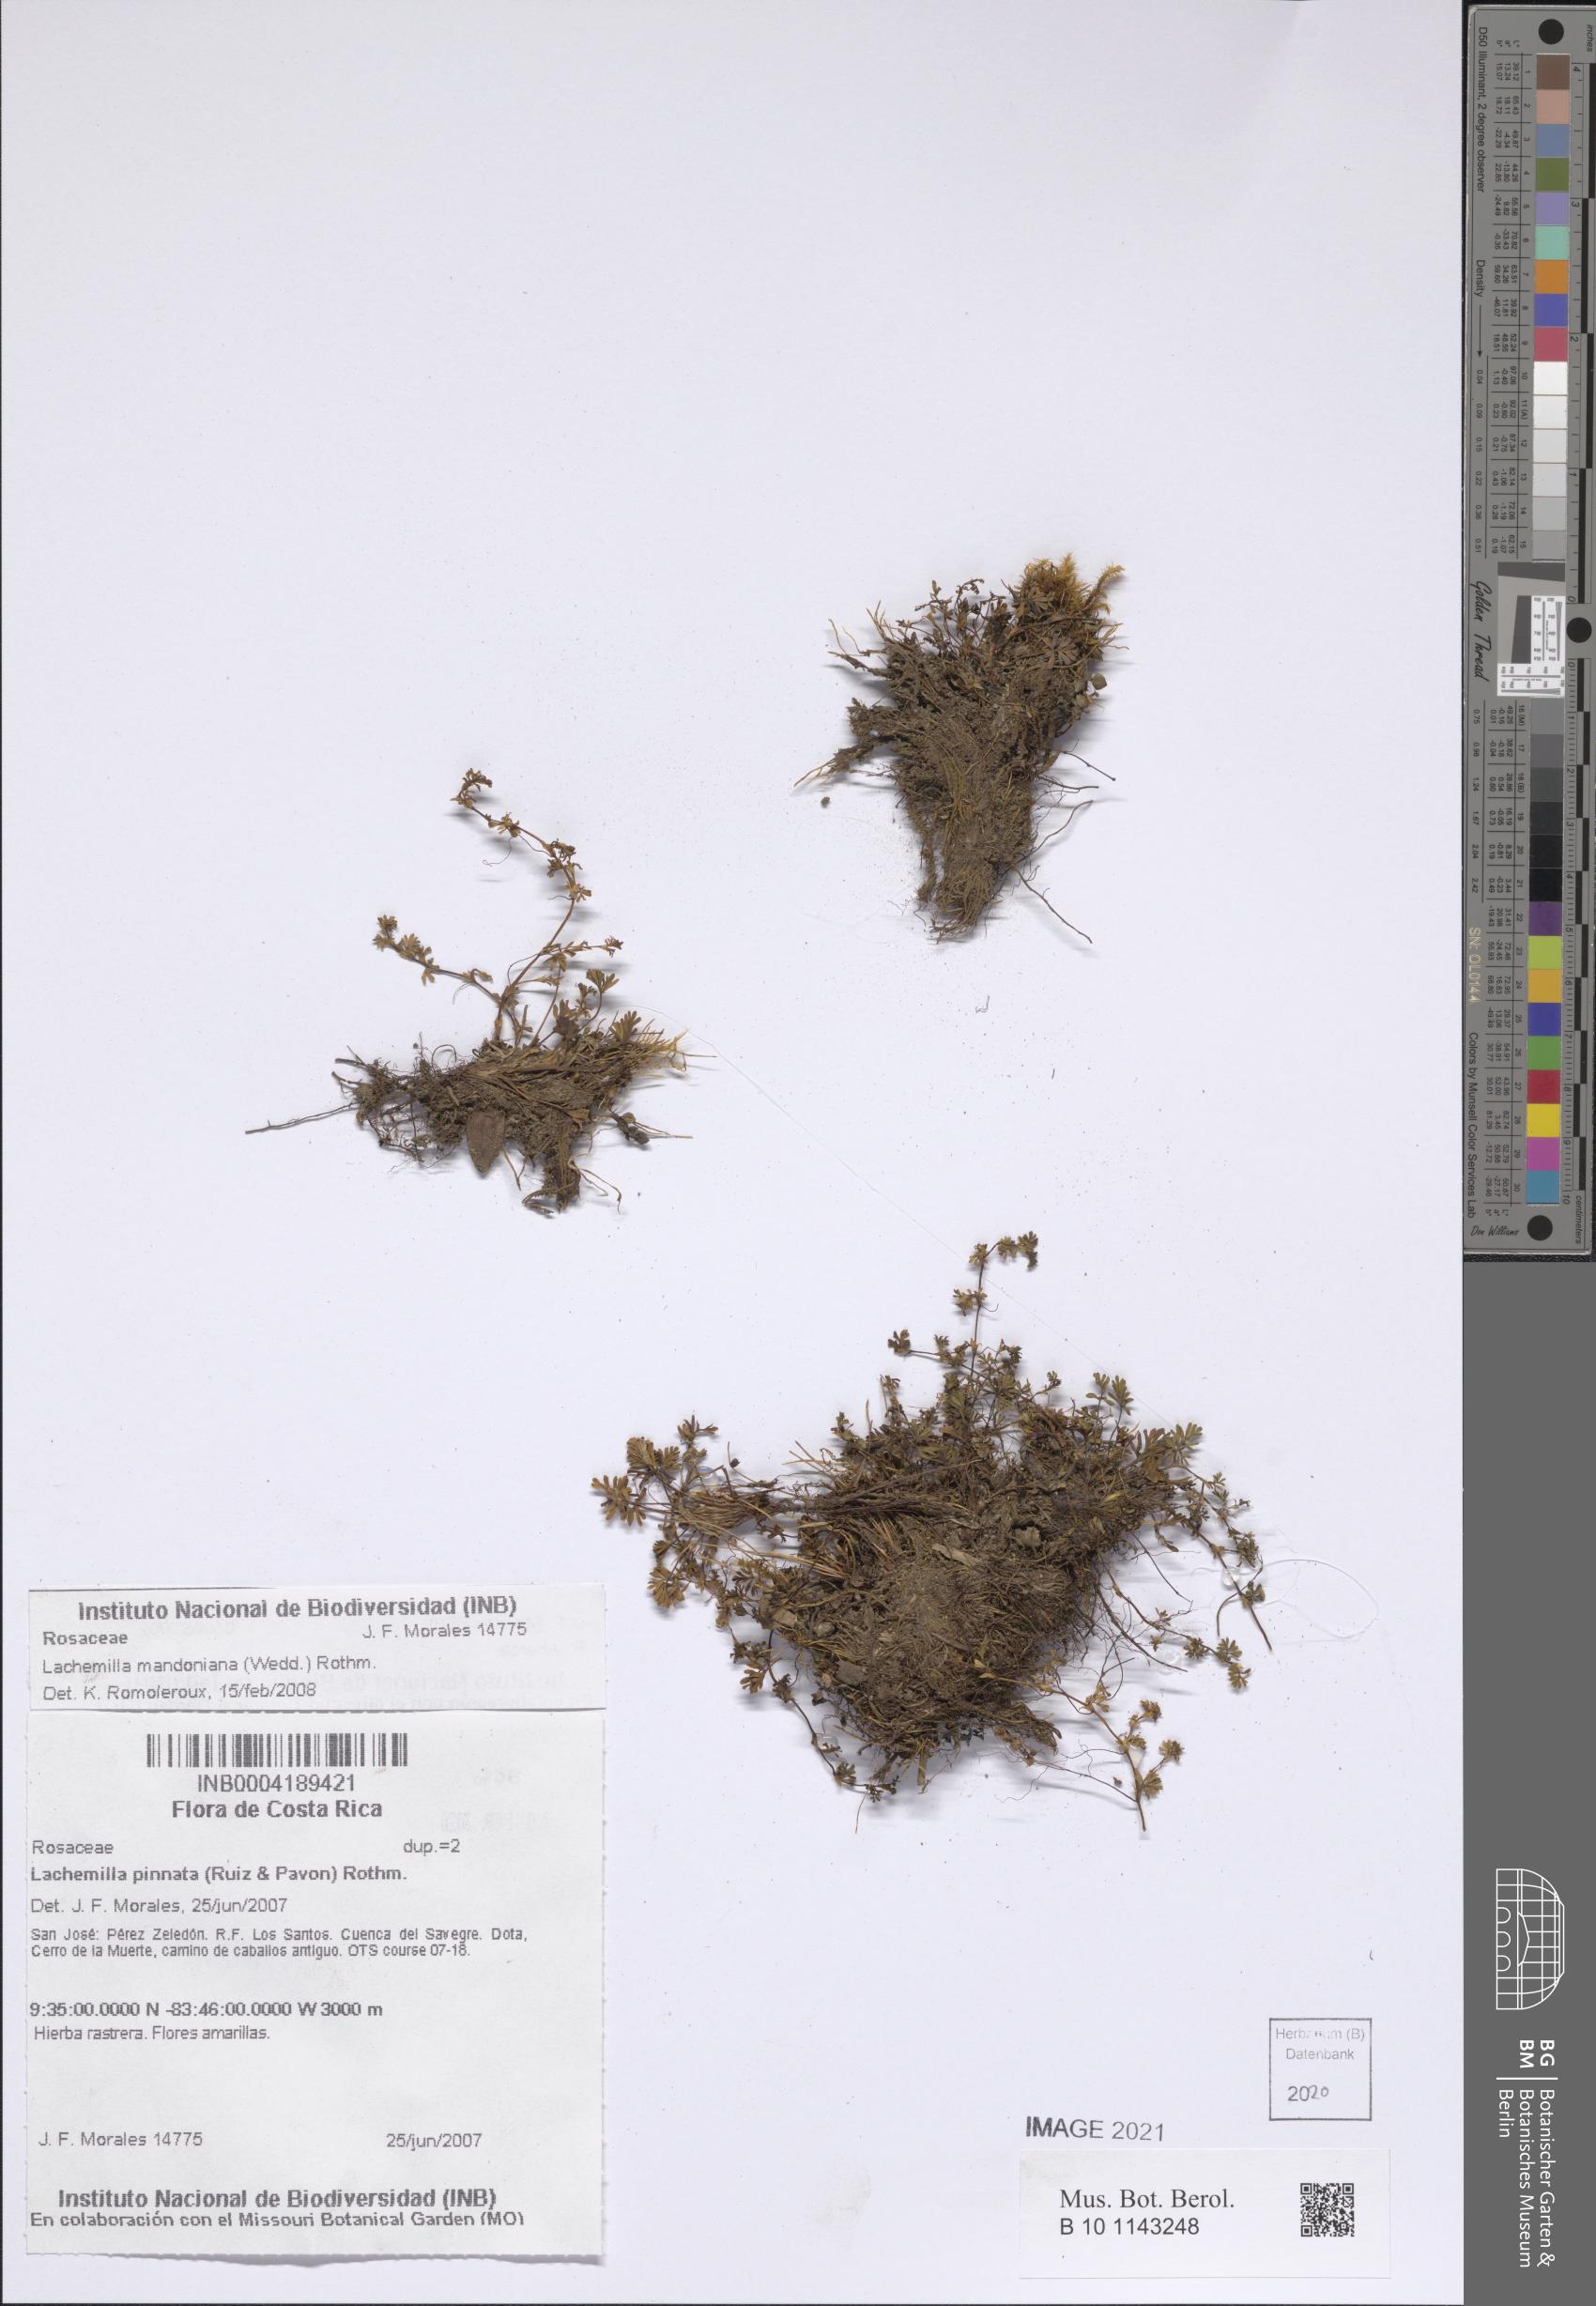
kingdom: Plantae
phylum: Tracheophyta
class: Magnoliopsida
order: Rosales
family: Rosaceae
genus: Lachemilla
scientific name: Lachemilla mandoniana
